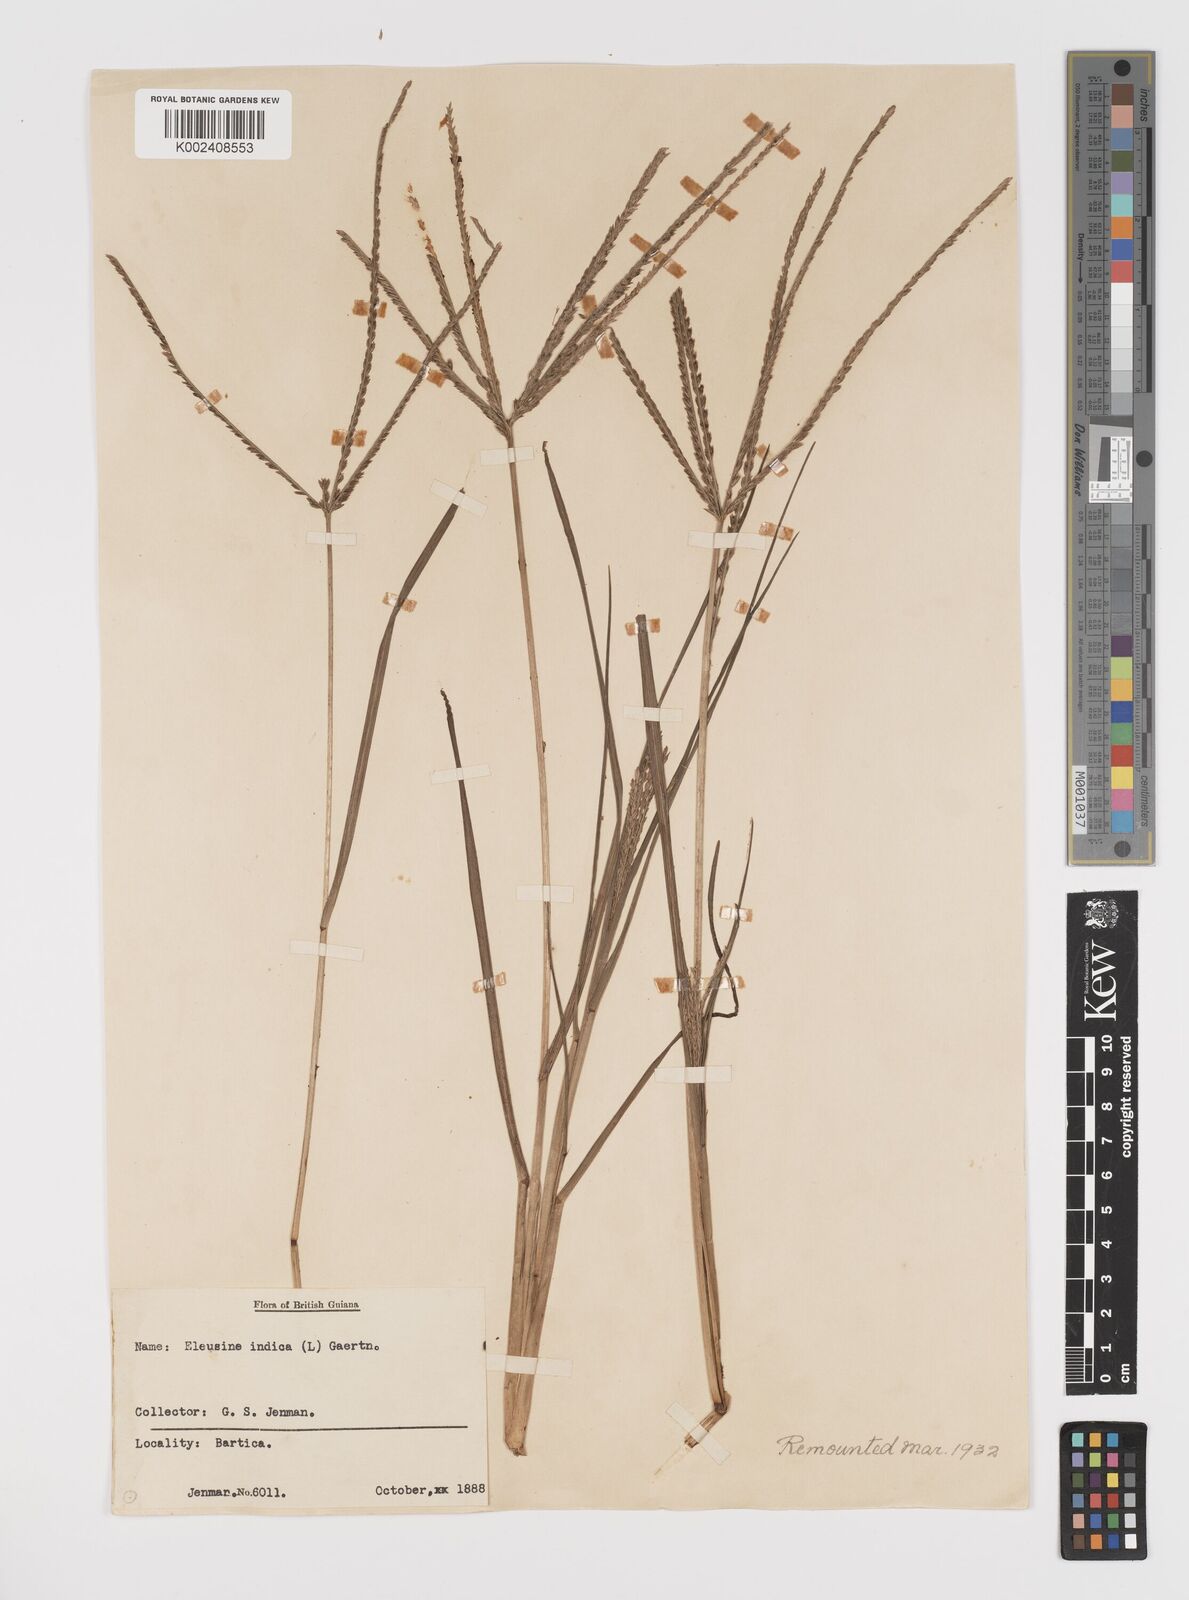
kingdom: Plantae
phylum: Tracheophyta
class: Liliopsida
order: Poales
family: Poaceae
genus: Eleusine
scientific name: Eleusine indica
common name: Yard-grass
